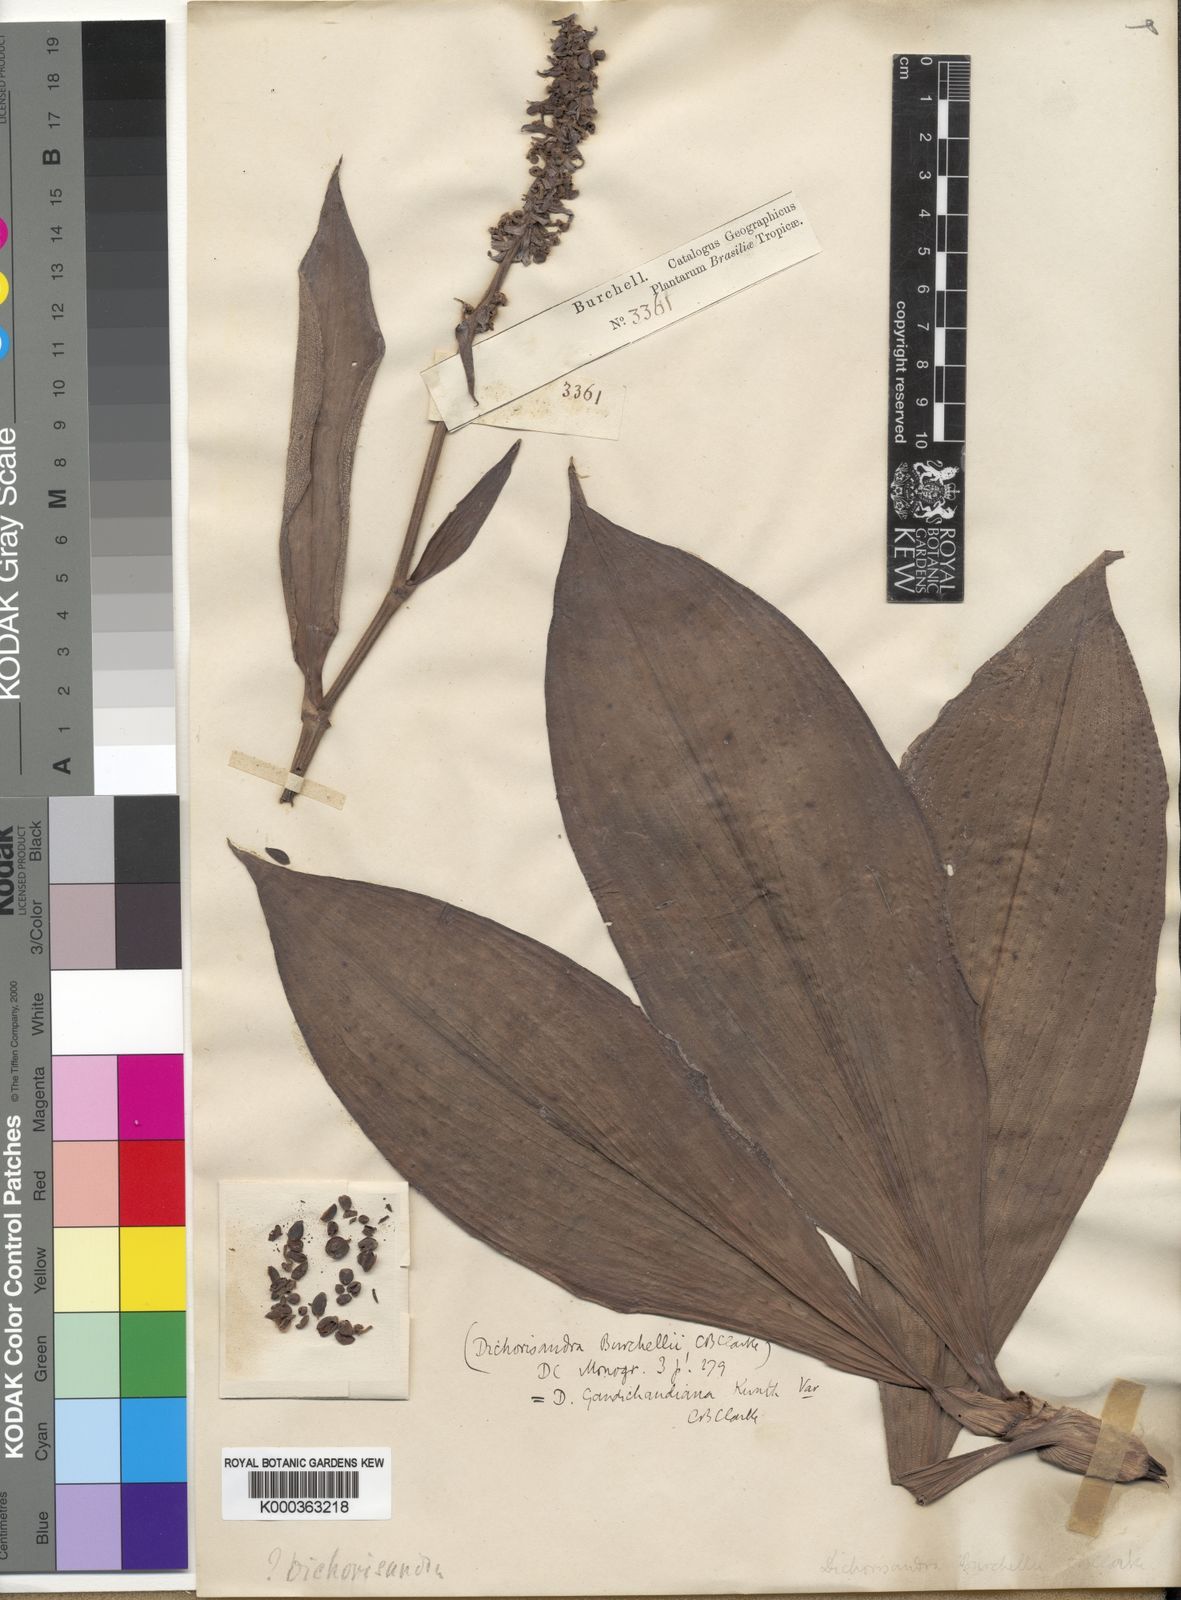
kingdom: Plantae
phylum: Tracheophyta
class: Liliopsida
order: Commelinales
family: Commelinaceae
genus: Dichorisandra
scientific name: Dichorisandra paranaensis
